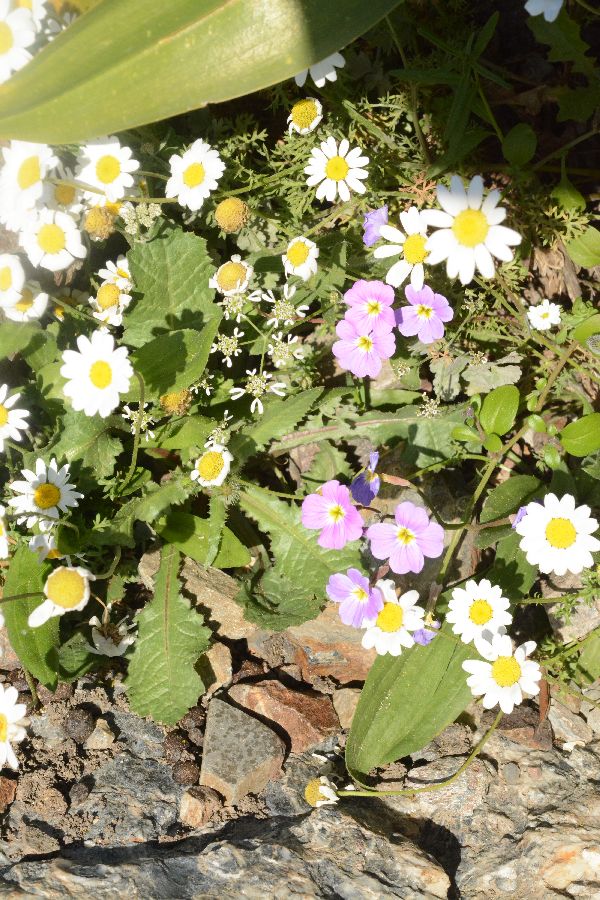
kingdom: Plantae
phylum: Tracheophyta
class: Magnoliopsida
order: Asterales
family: Asteraceae
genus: Anthemis
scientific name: Anthemis chia
